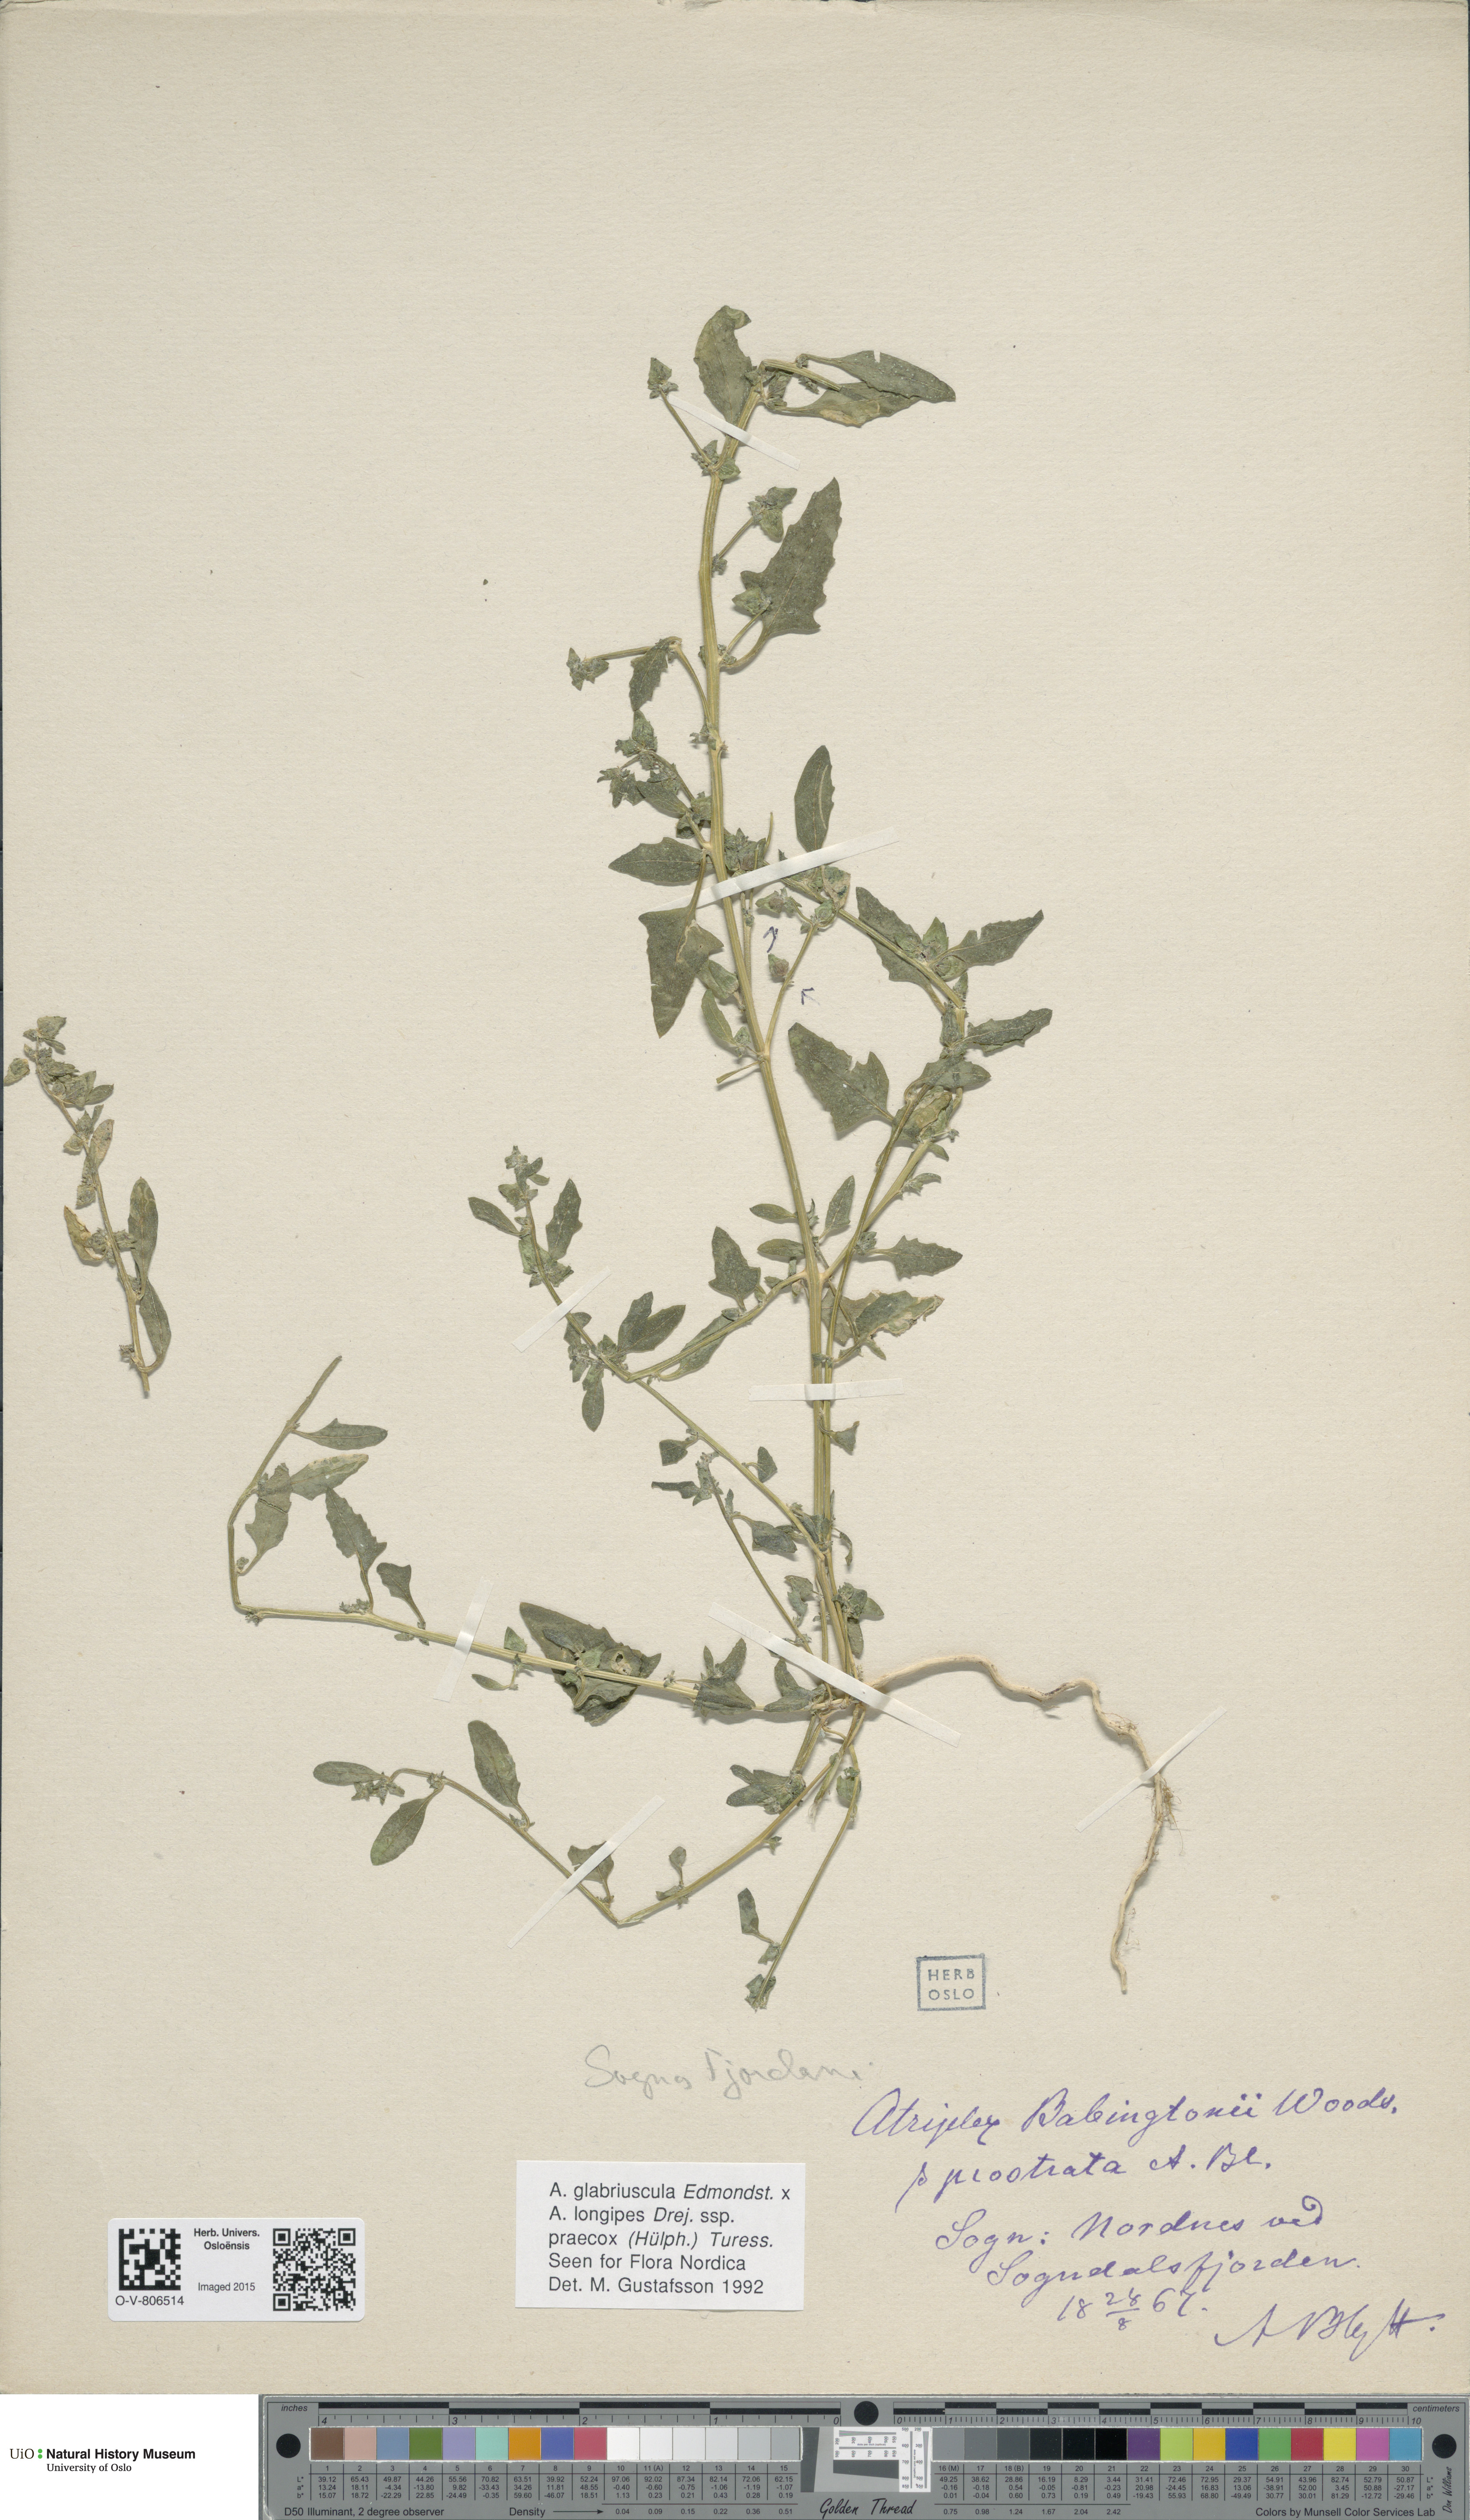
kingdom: Plantae
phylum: Tracheophyta
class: Magnoliopsida
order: Caryophyllales
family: Amaranthaceae
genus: Atriplex
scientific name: Atriplex
